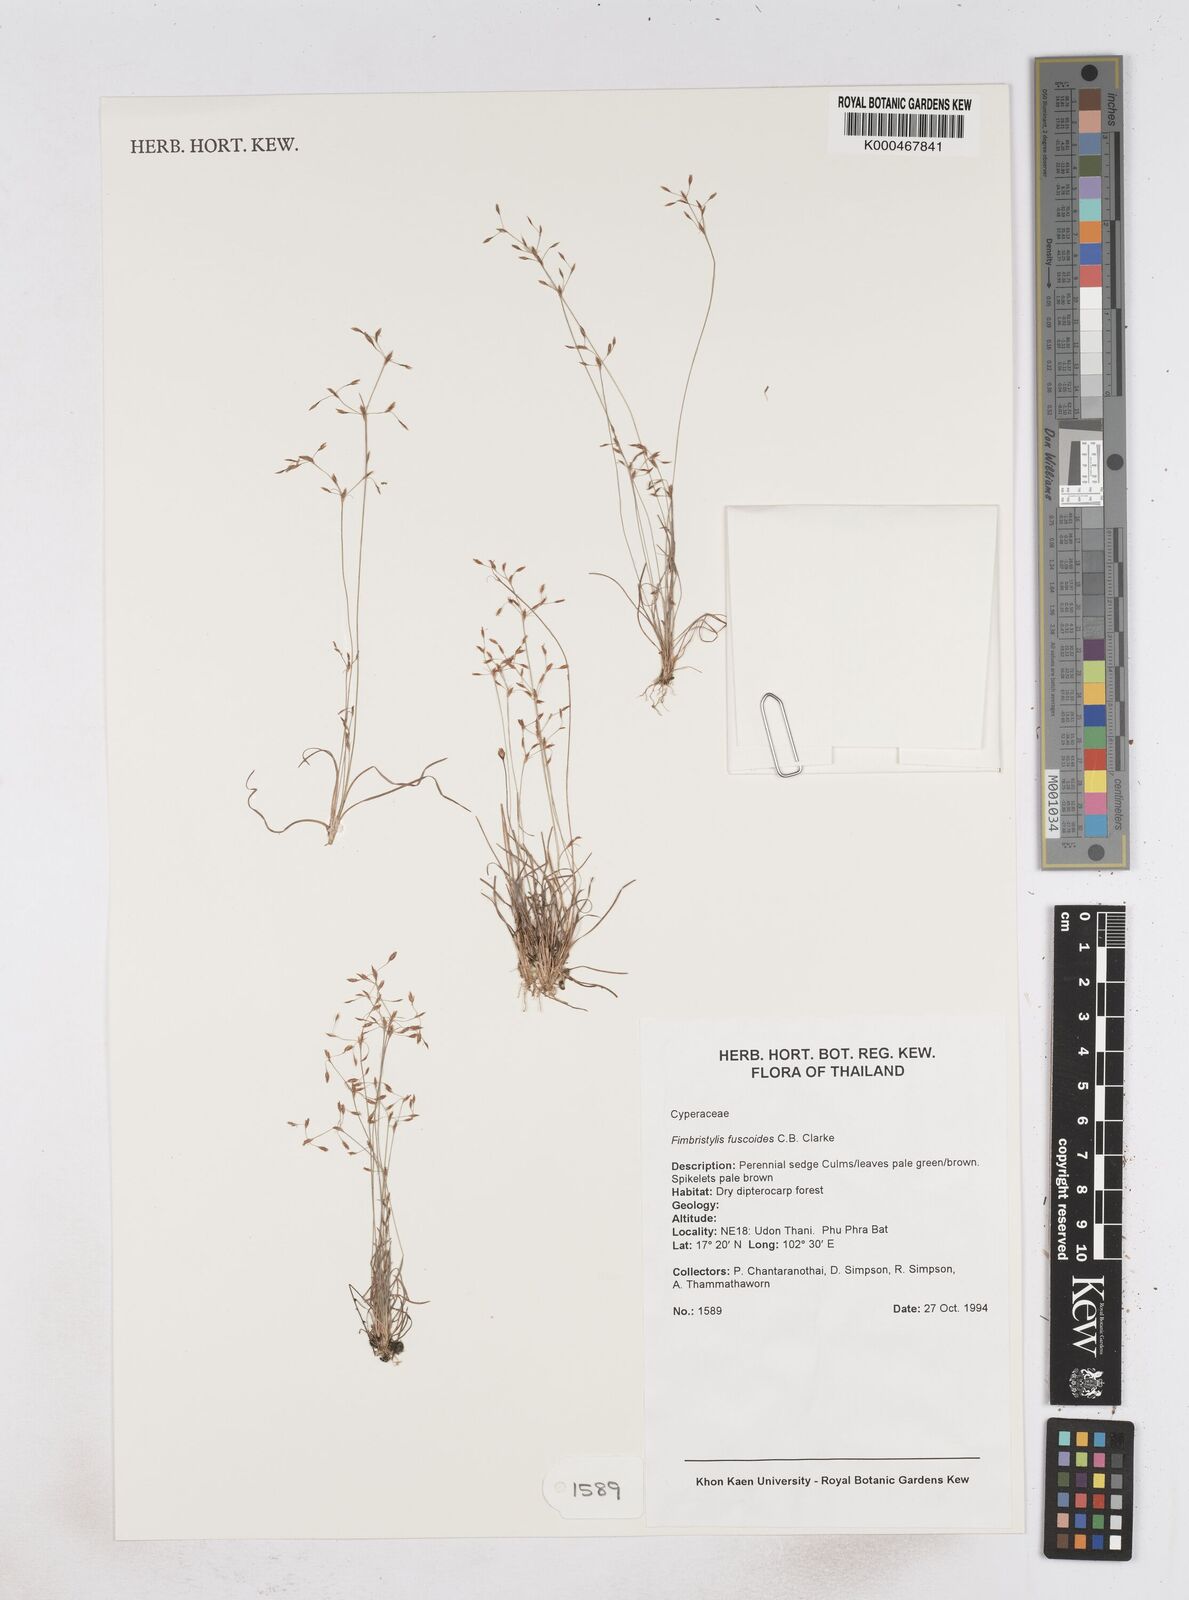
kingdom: Plantae
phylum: Tracheophyta
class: Liliopsida
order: Poales
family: Cyperaceae
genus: Fimbristylis
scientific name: Fimbristylis fuscoides
